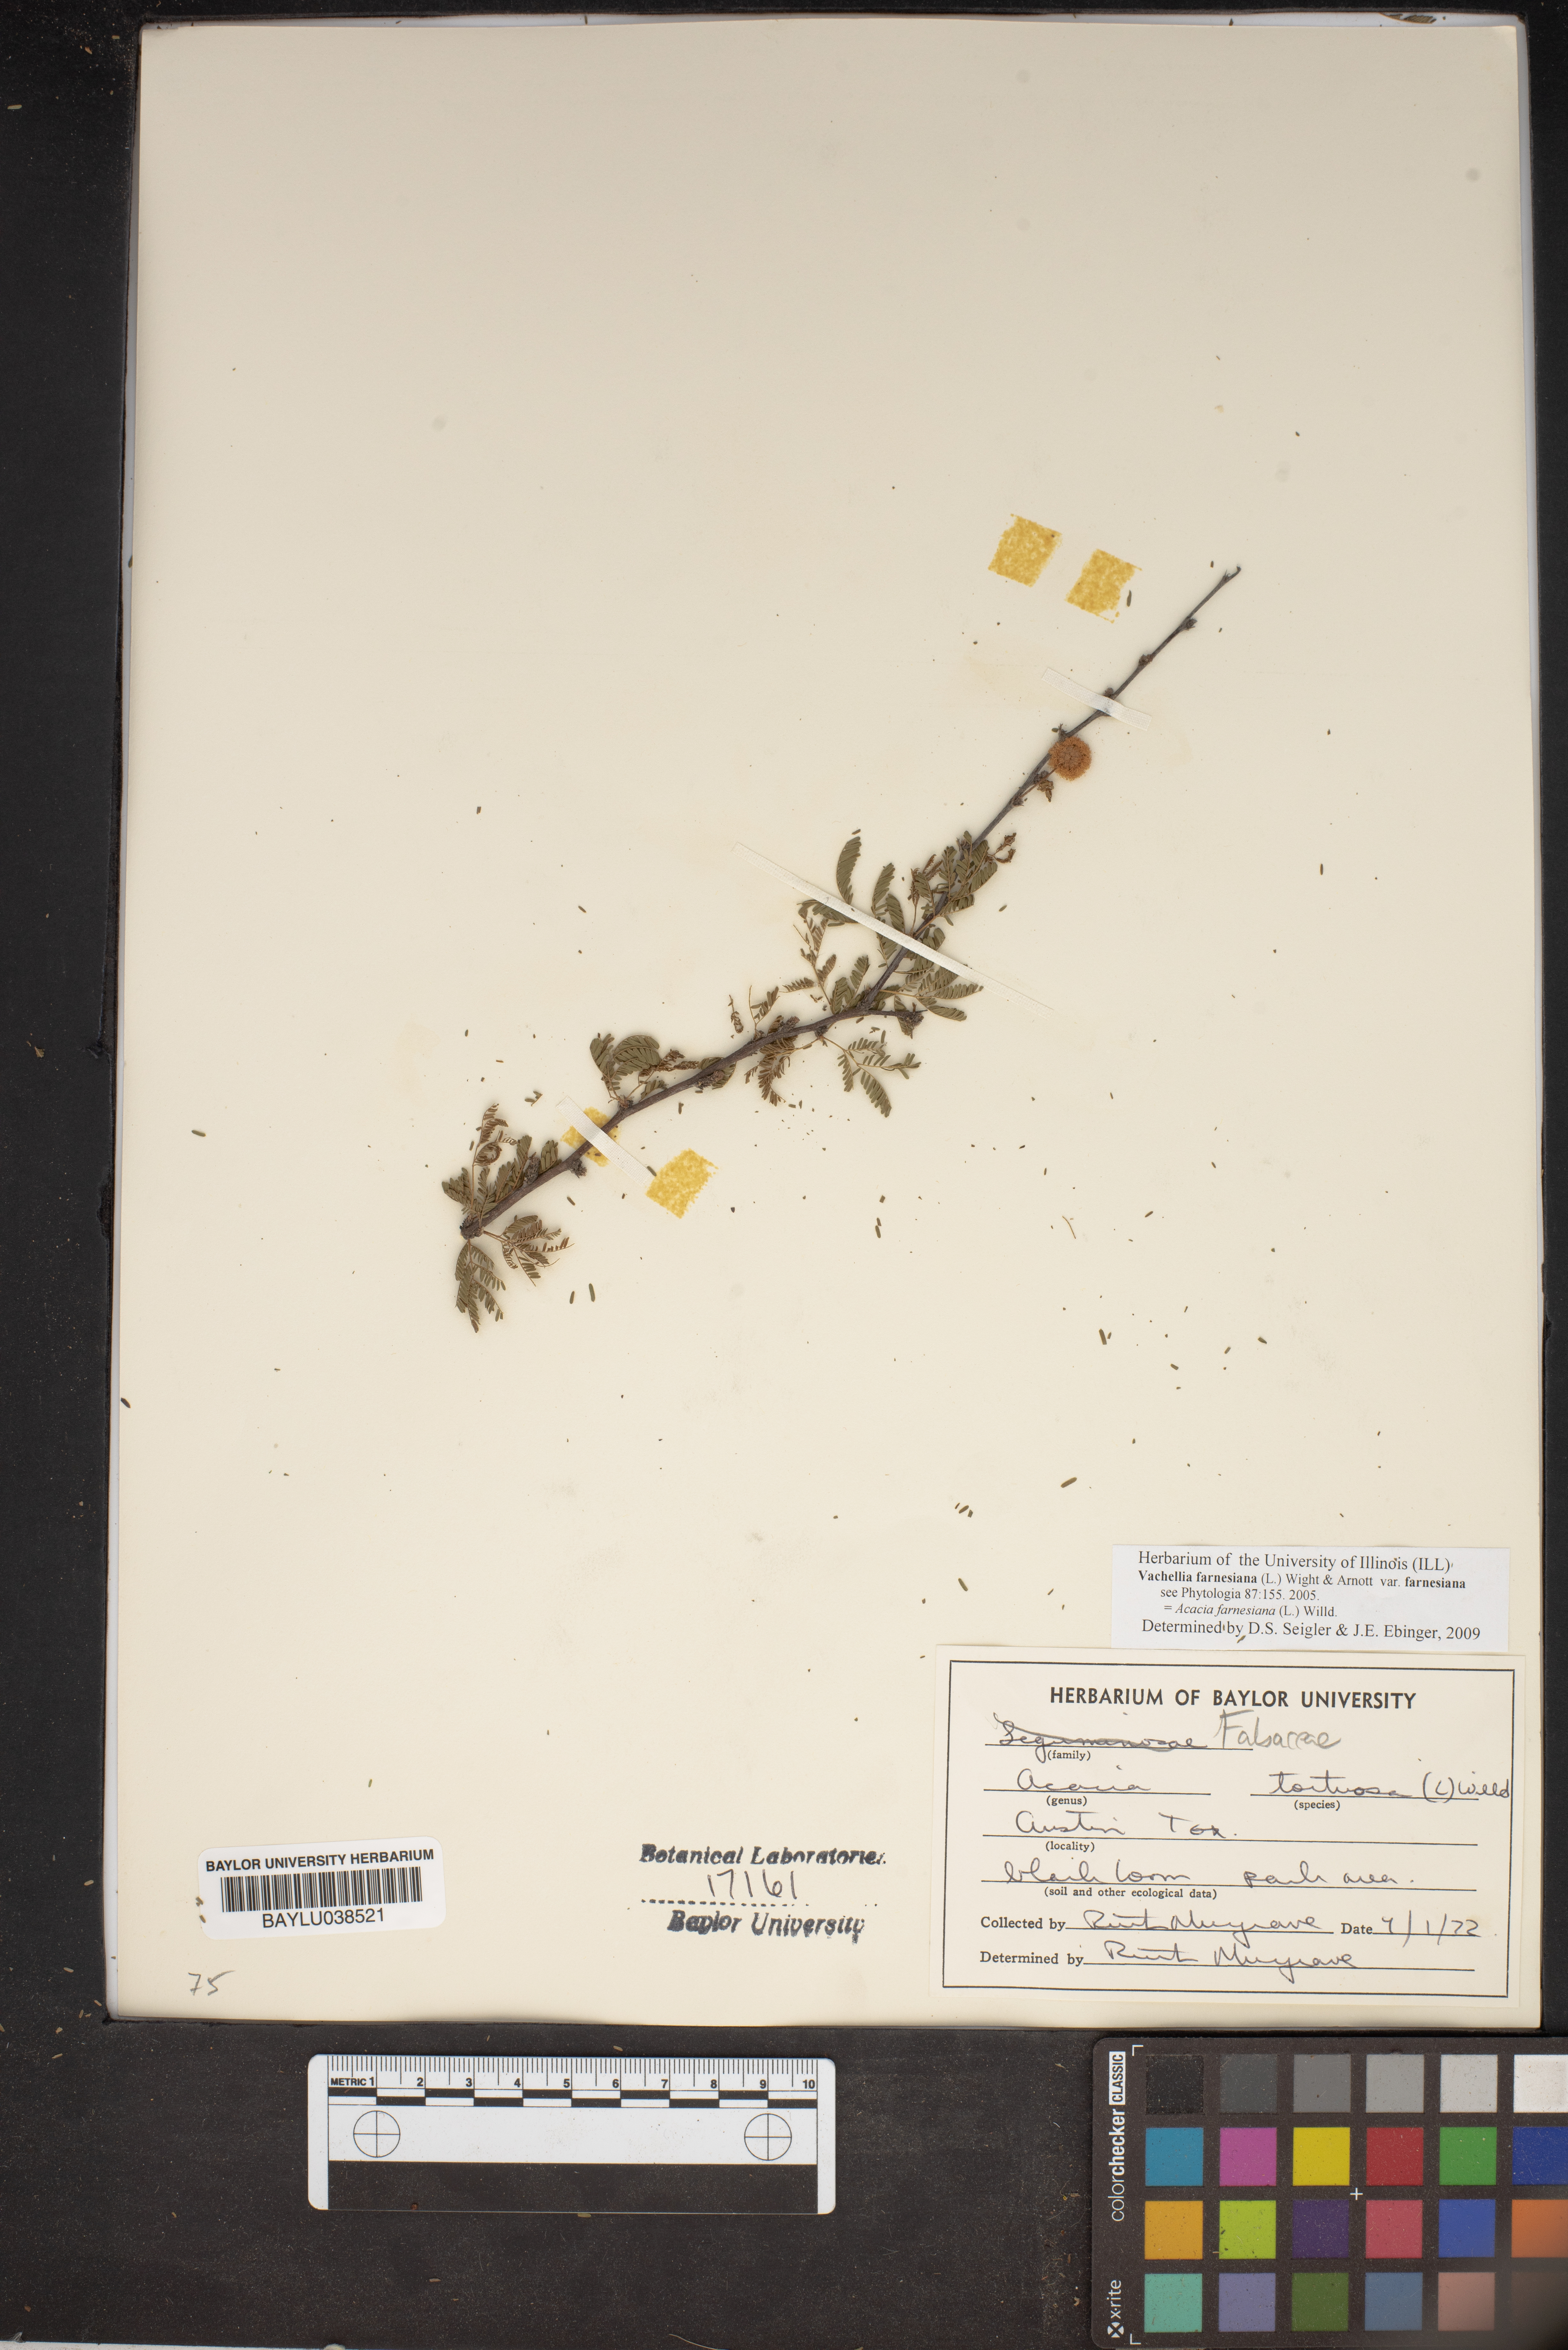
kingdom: Plantae
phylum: Tracheophyta
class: Magnoliopsida
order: Fabales
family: Fabaceae
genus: Vachellia
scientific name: Vachellia tortuosa
